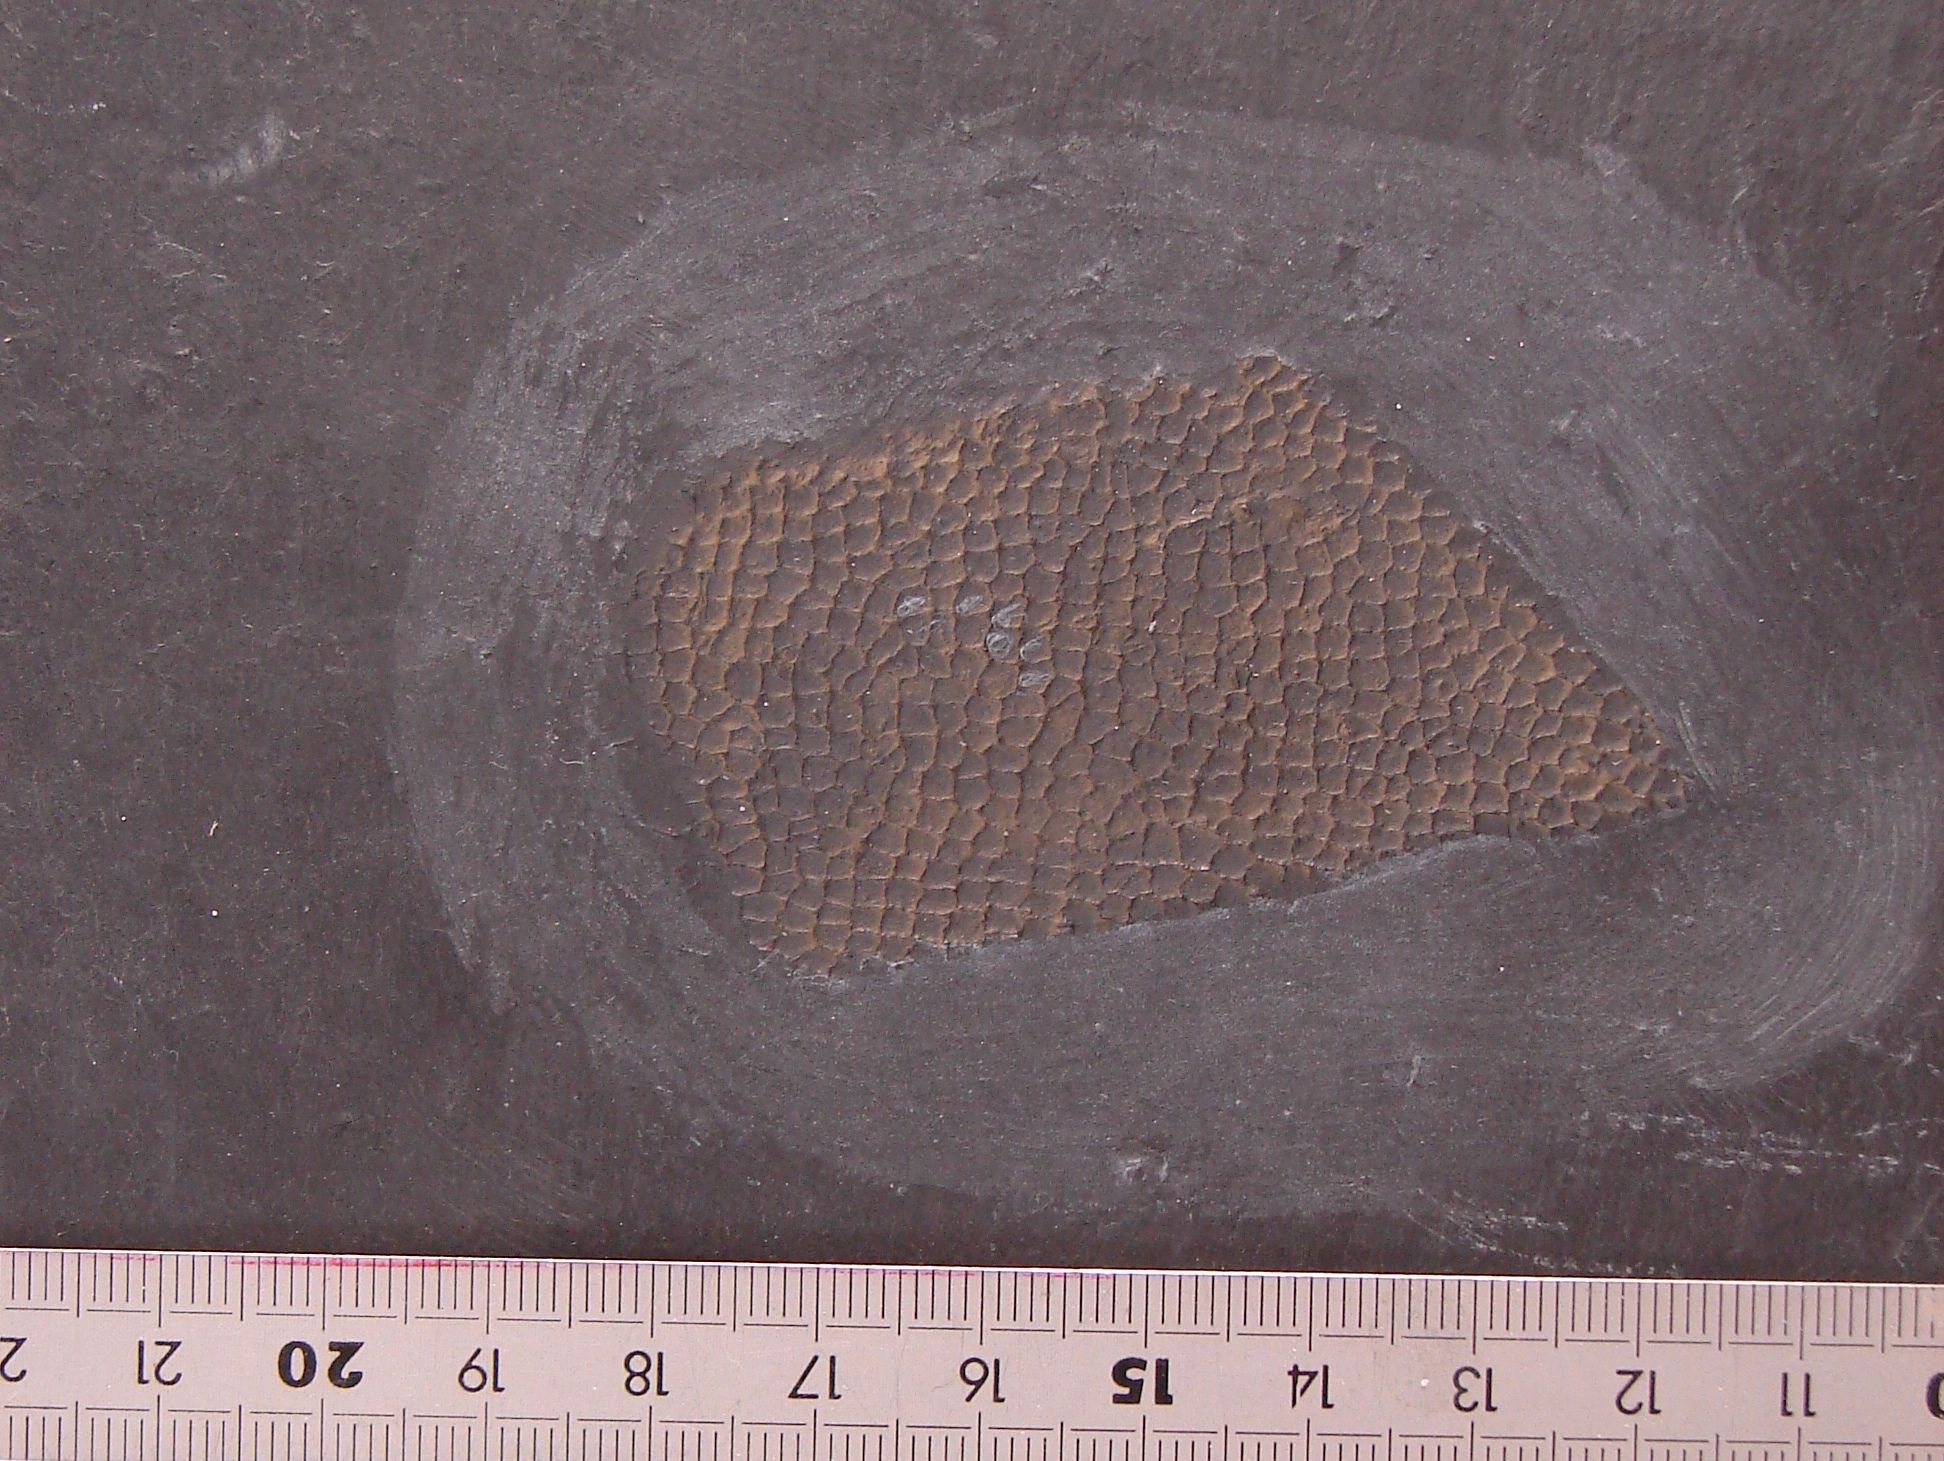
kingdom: Animalia
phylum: Porifera
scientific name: Porifera
